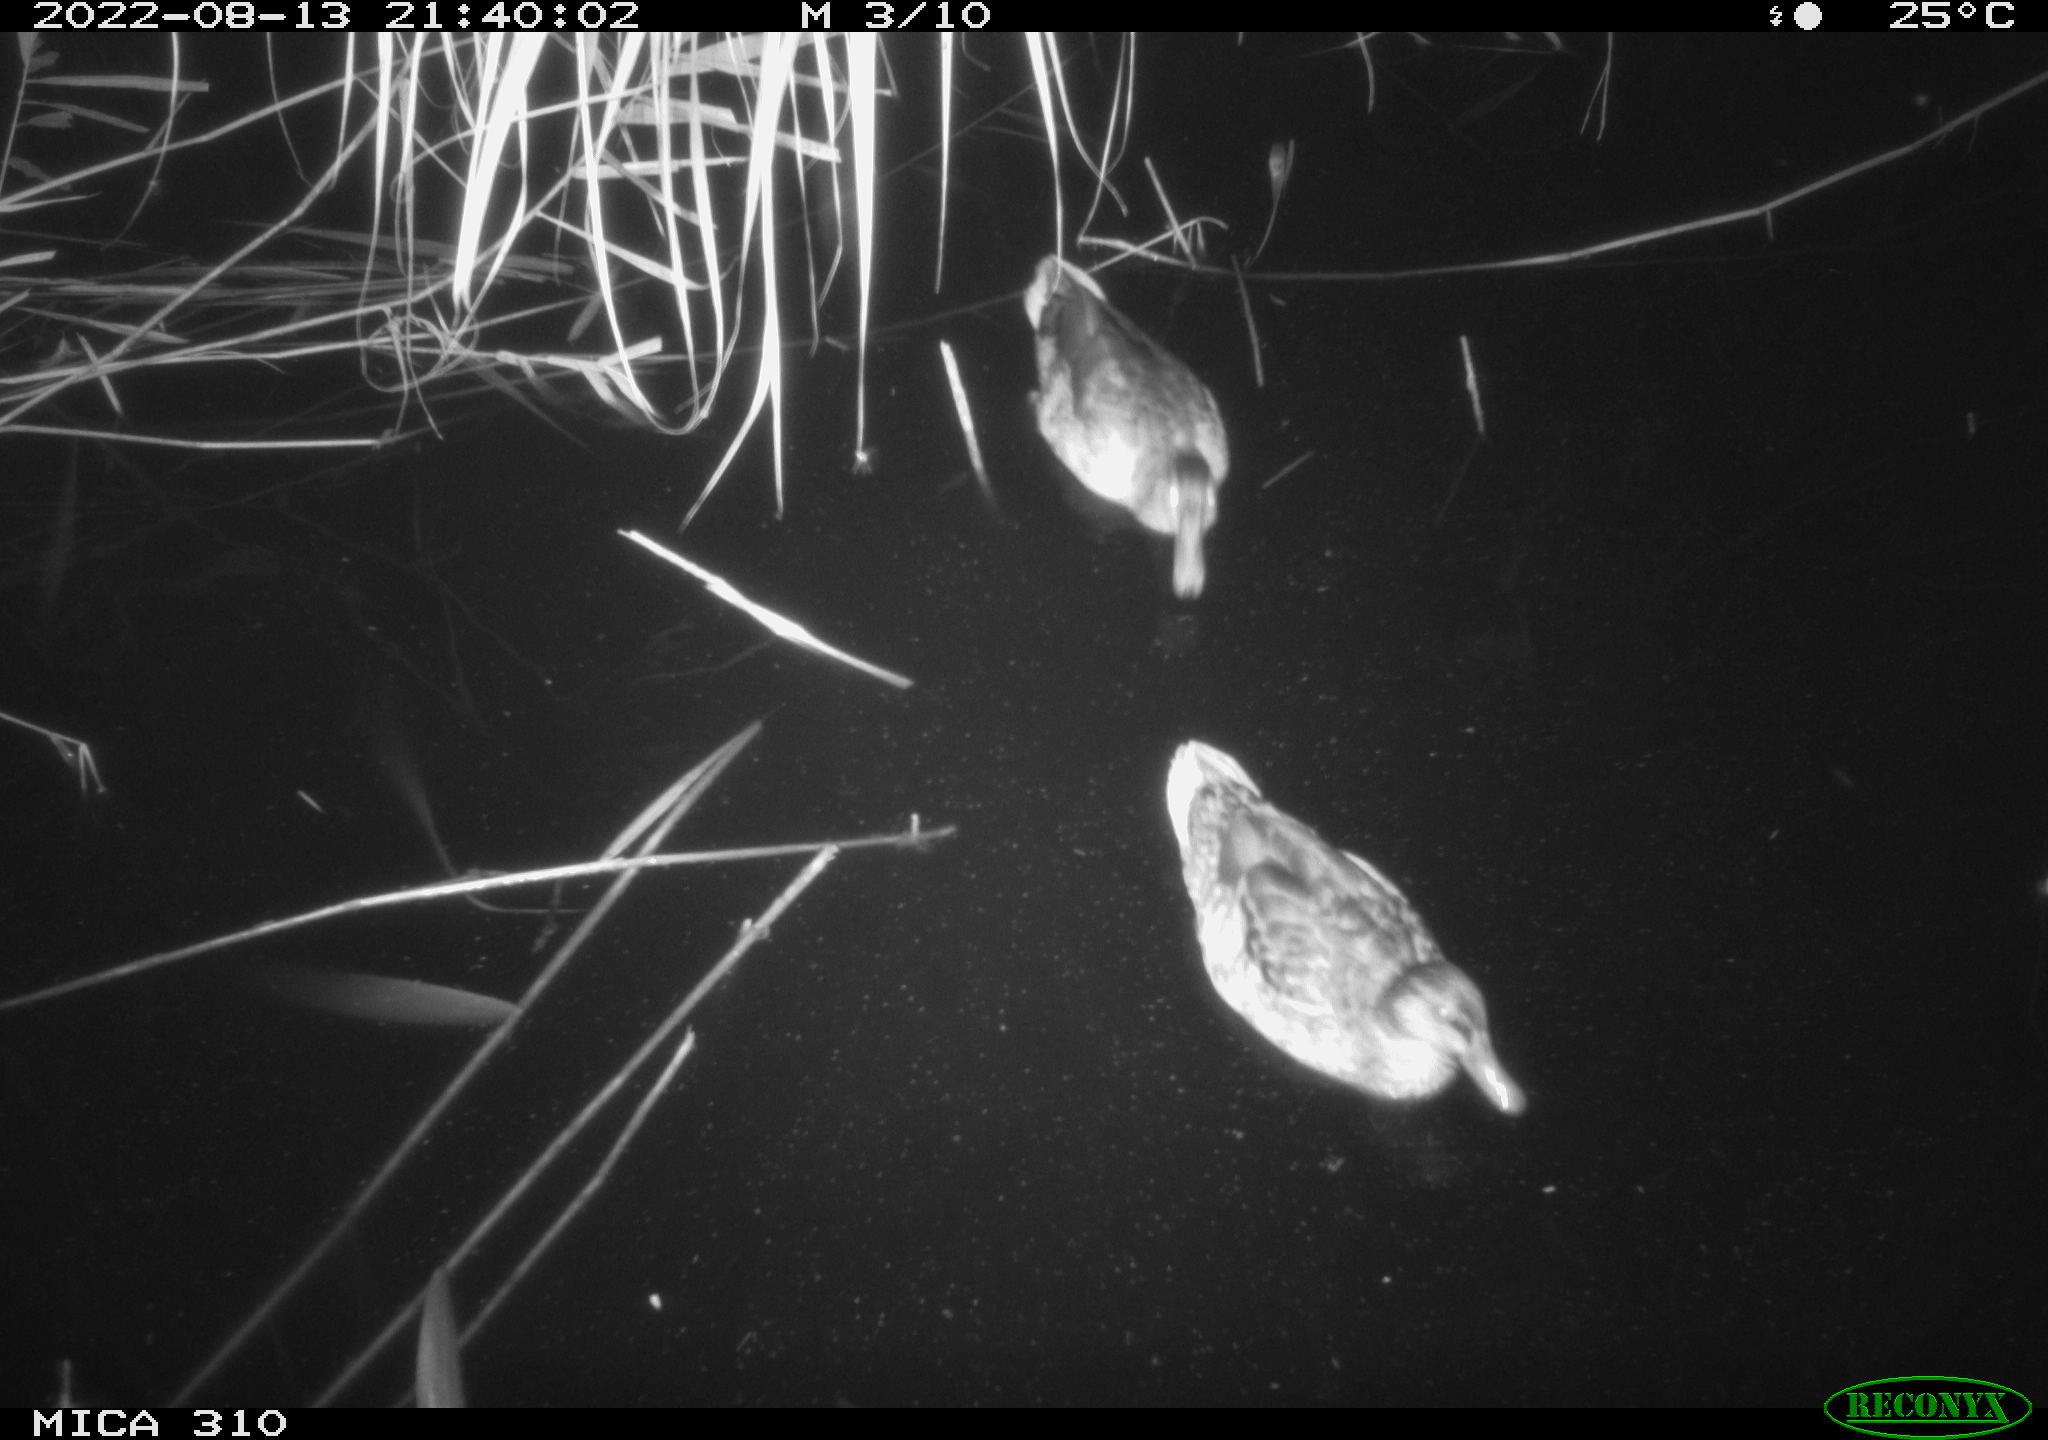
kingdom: Animalia
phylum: Chordata
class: Aves
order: Anseriformes
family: Anatidae
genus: Anas
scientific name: Anas platyrhynchos
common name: Mallard
